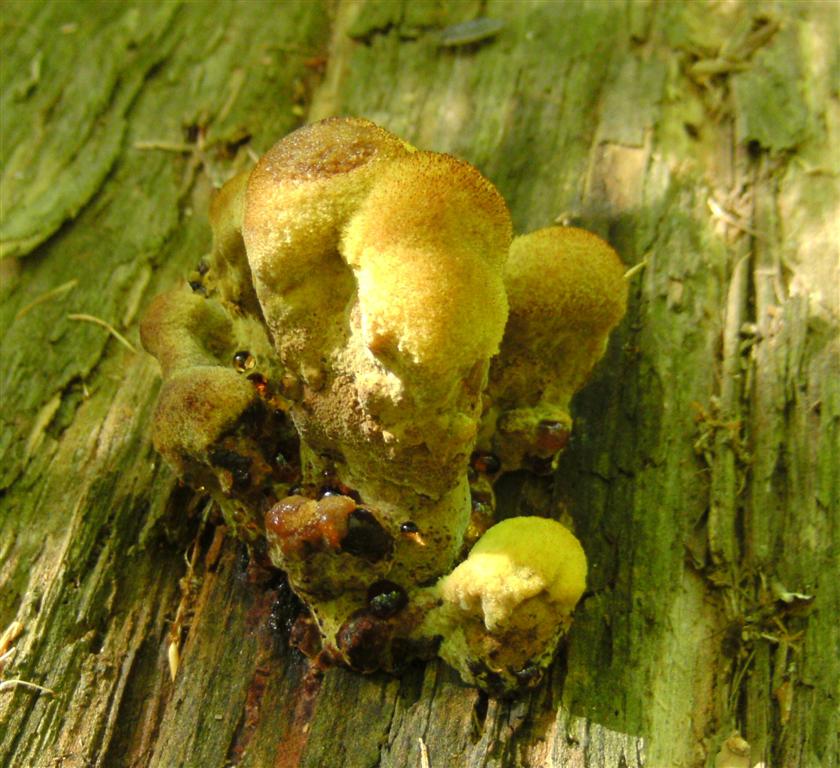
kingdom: Fungi
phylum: Basidiomycota
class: Agaricomycetes
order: Polyporales
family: Laetiporaceae
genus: Phaeolus
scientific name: Phaeolus schweinitzii
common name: brunporesvamp
